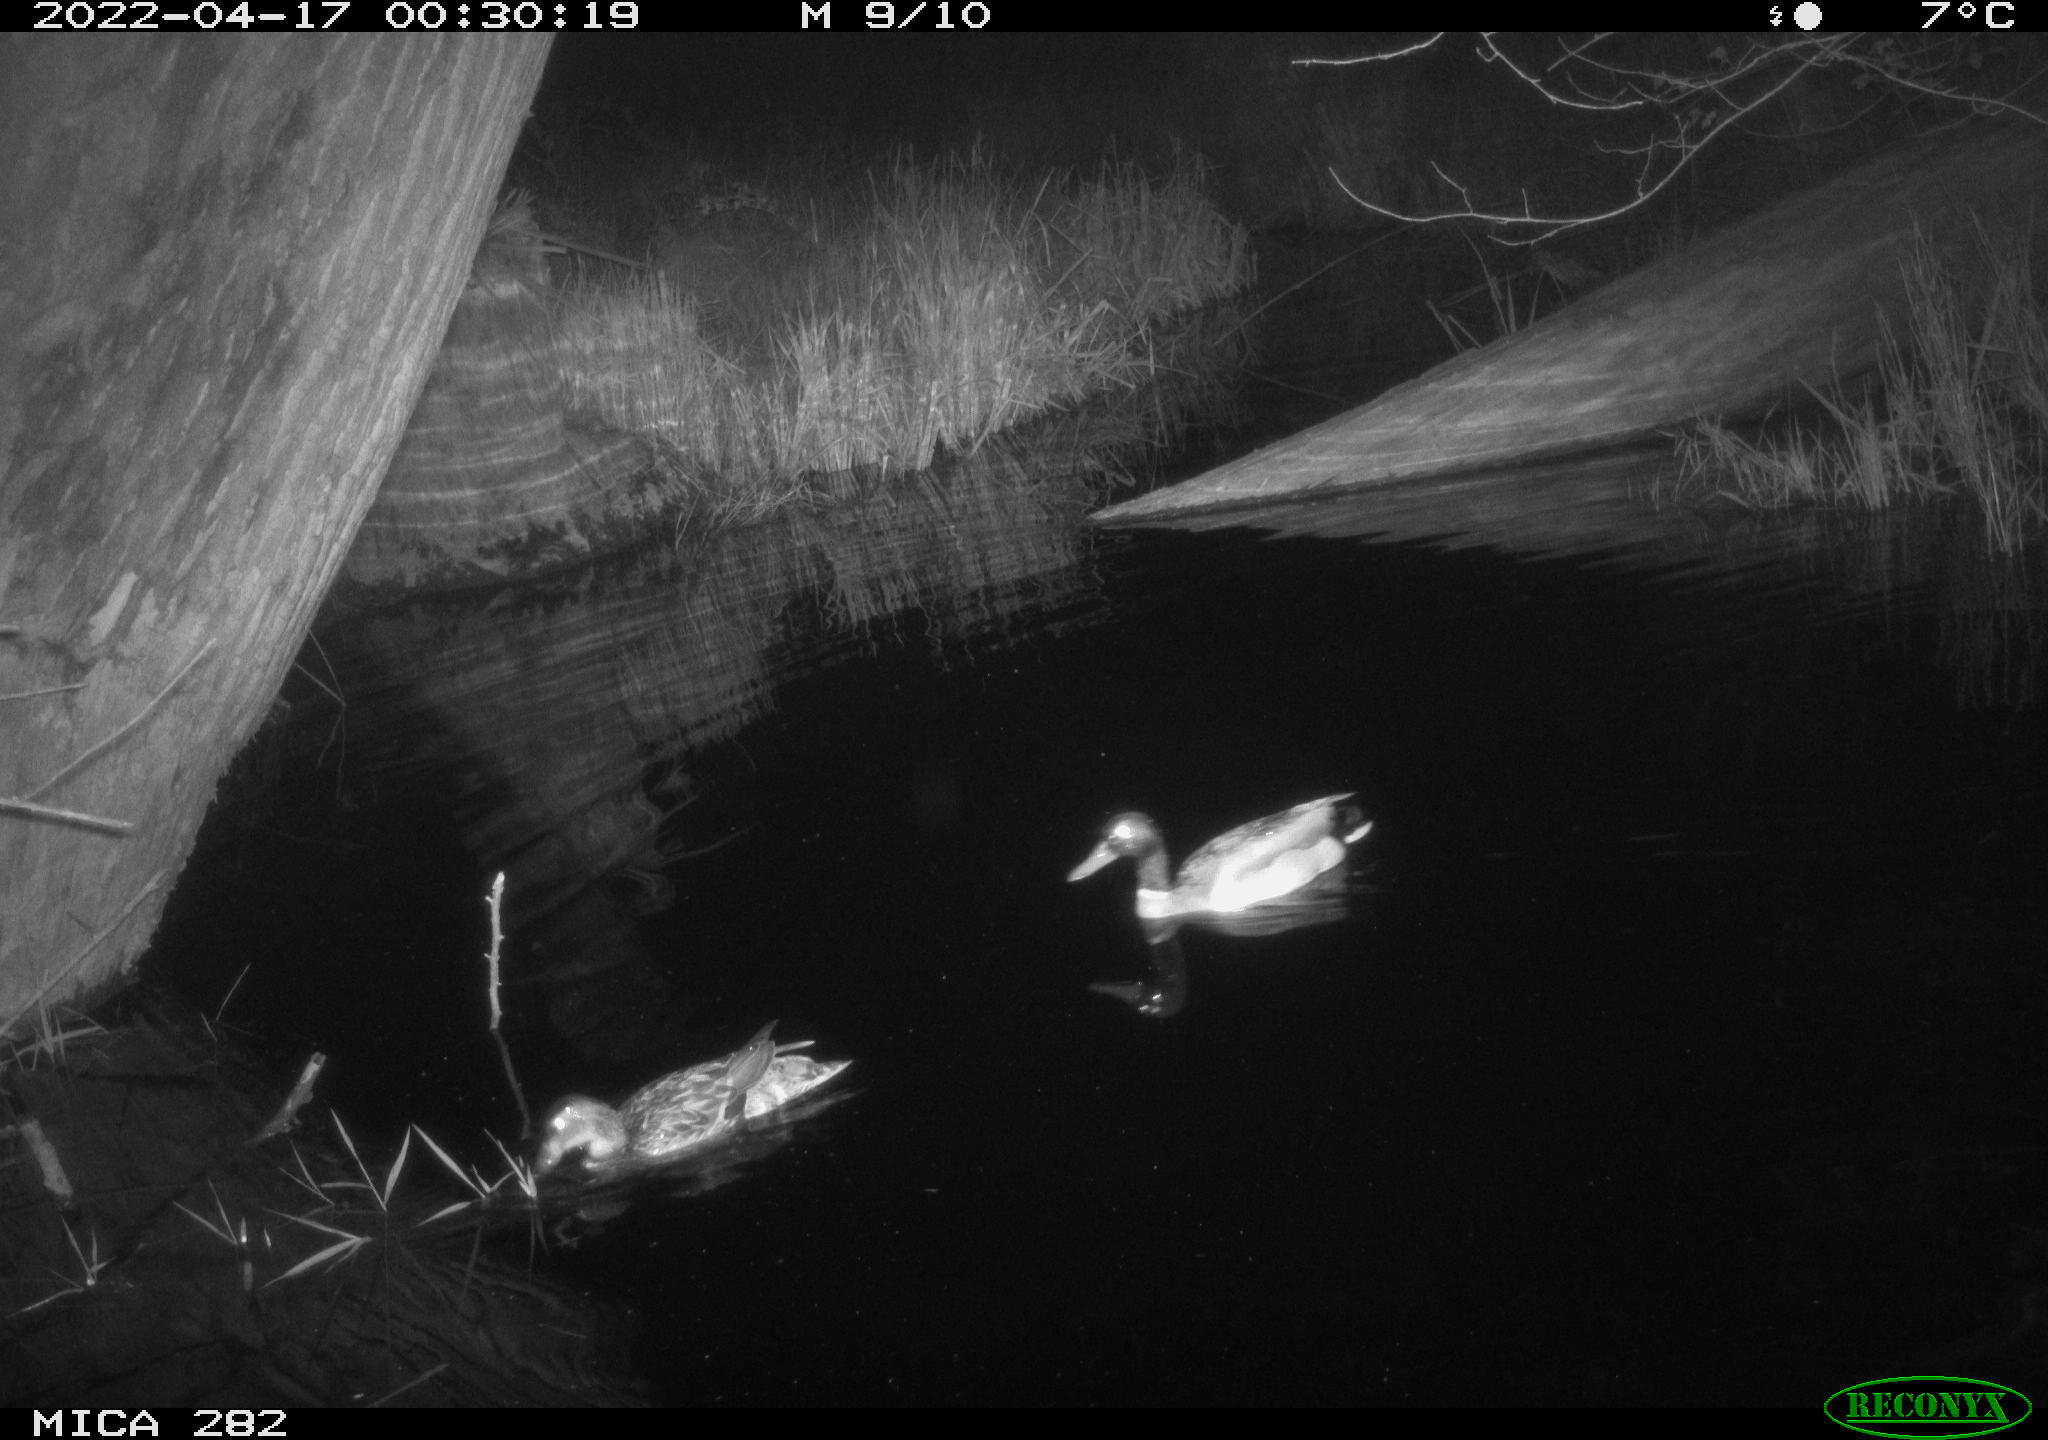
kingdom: Animalia
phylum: Chordata
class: Aves
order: Anseriformes
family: Anatidae
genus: Anas
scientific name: Anas platyrhynchos
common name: Mallard
